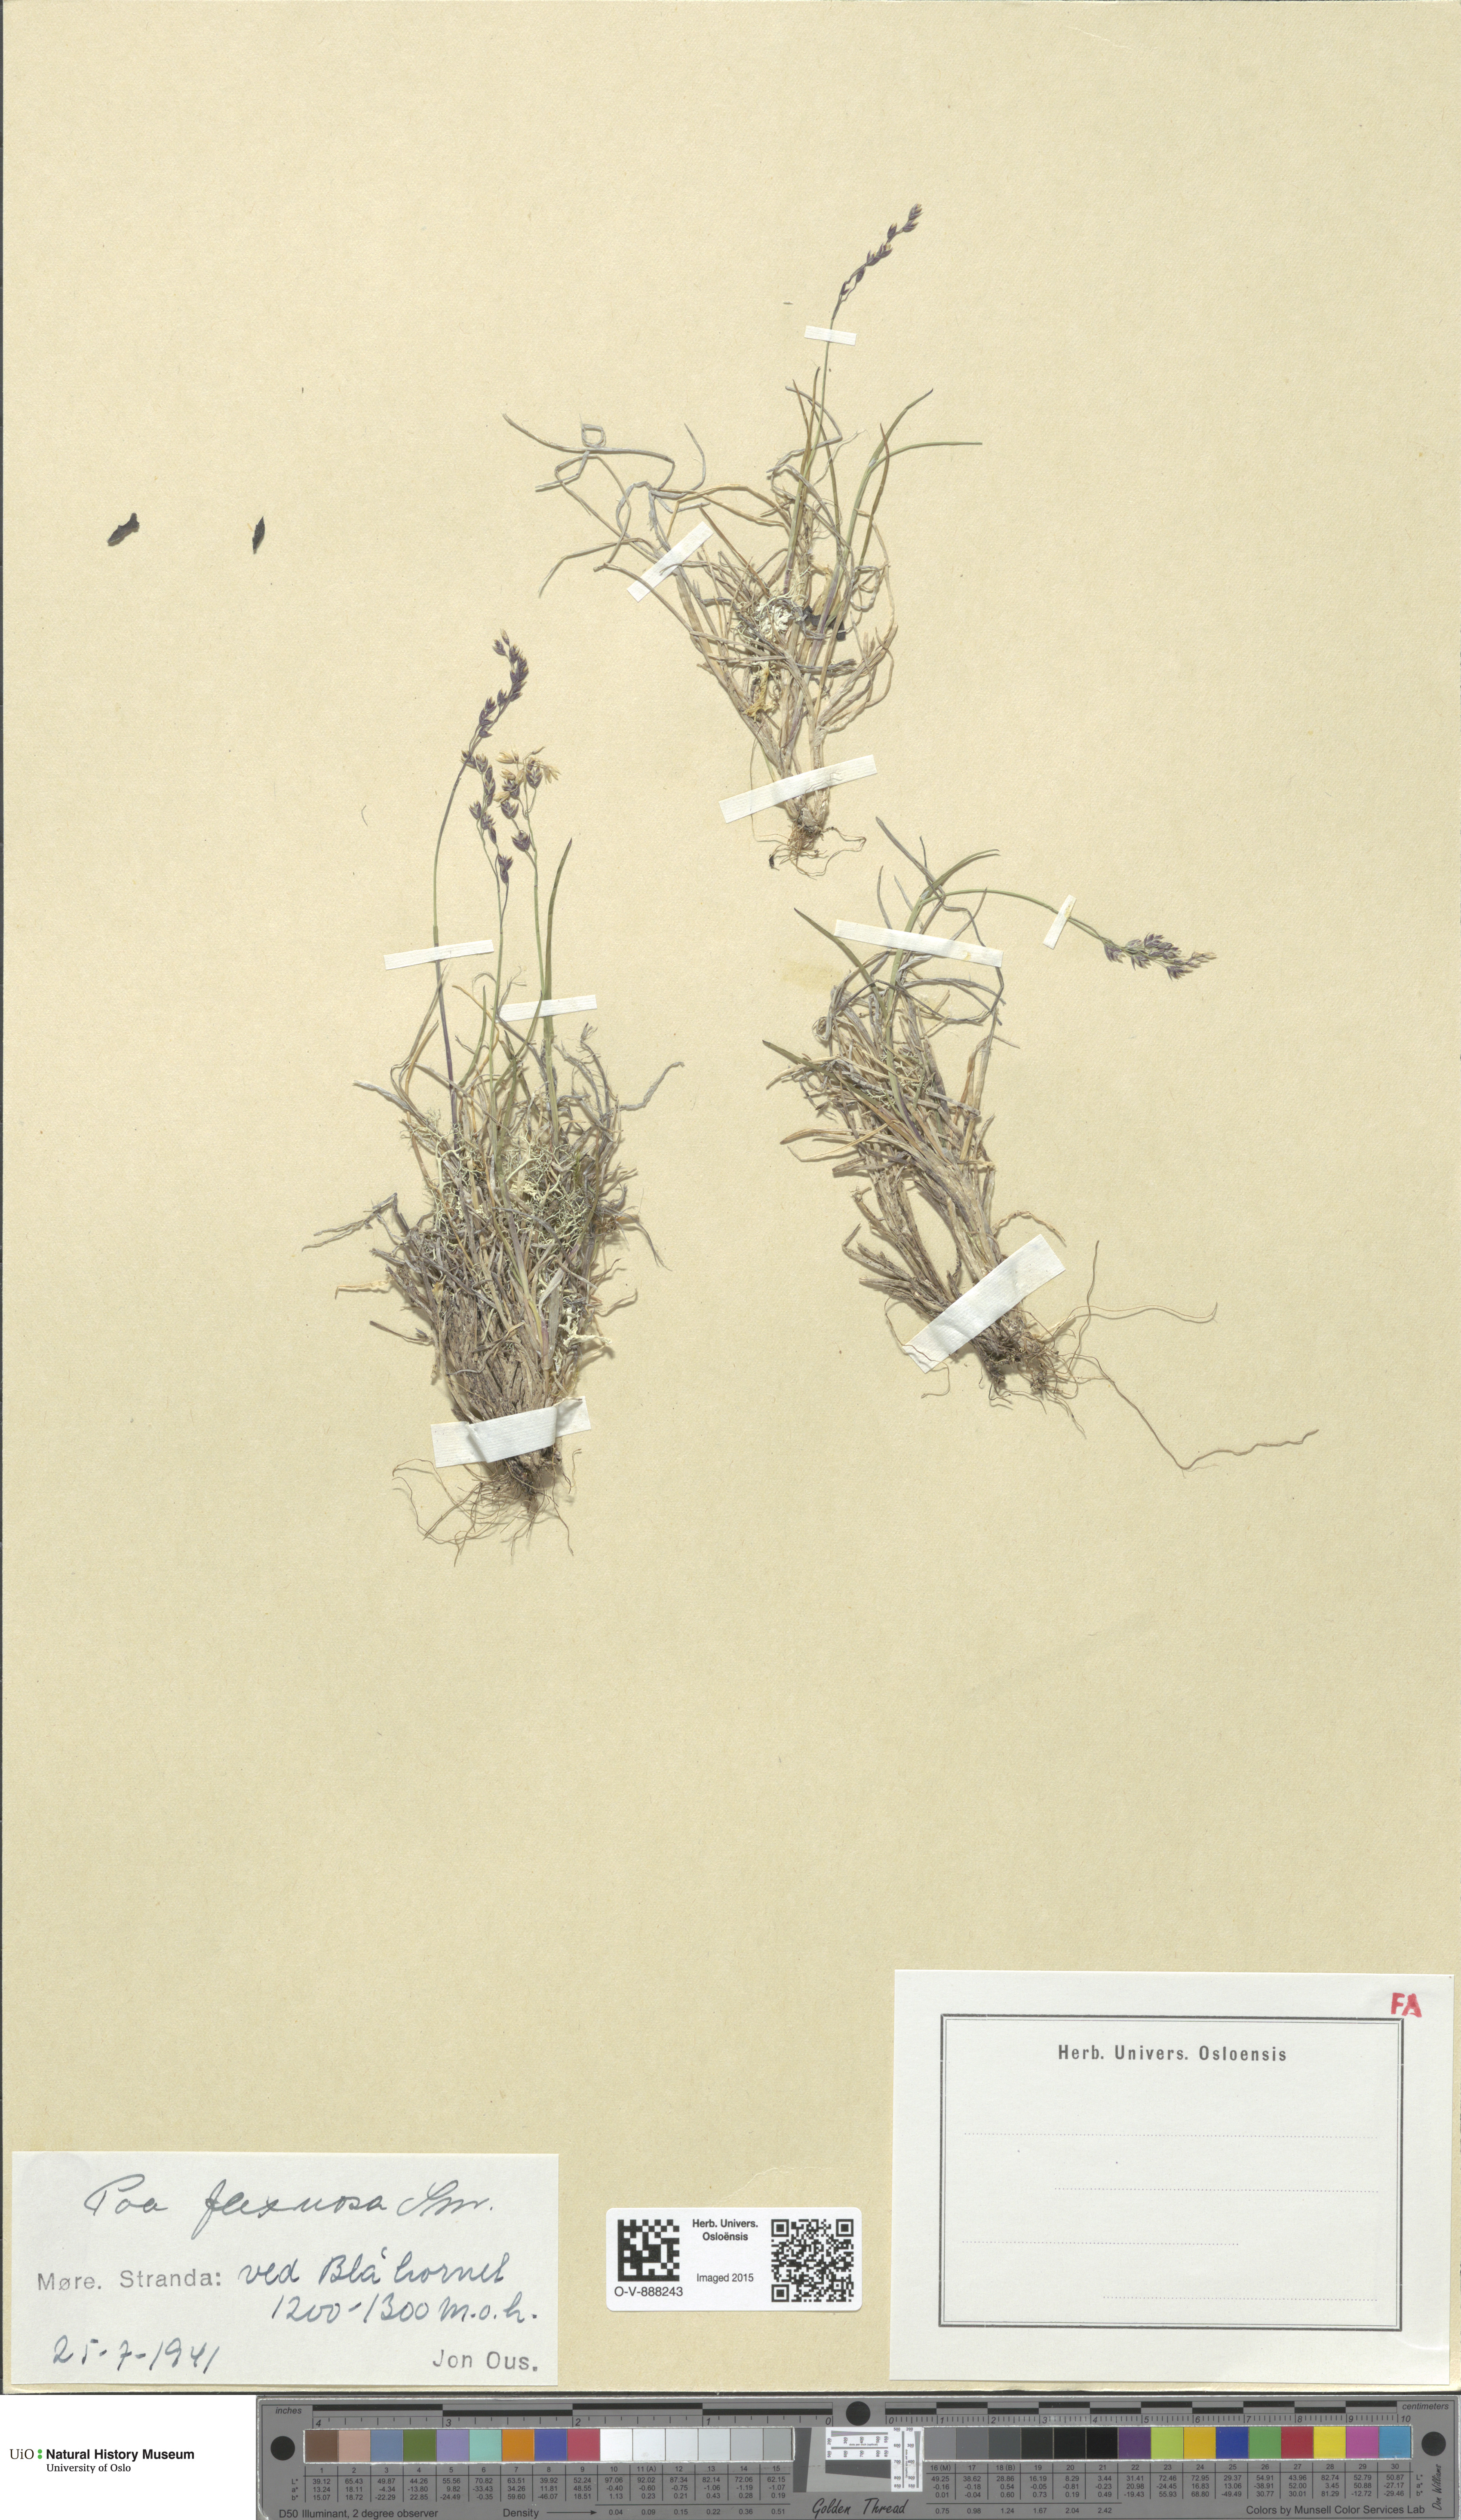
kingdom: Plantae
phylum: Tracheophyta
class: Liliopsida
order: Poales
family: Poaceae
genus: Poa
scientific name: Poa flexuosa
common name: Wavy meadow-grass
